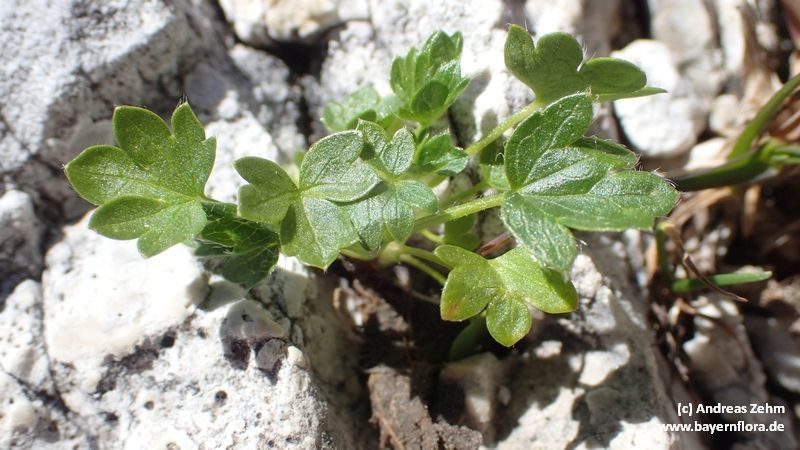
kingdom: Plantae
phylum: Tracheophyta
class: Magnoliopsida
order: Rosales
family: Rosaceae
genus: Potentilla
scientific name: Potentilla brauneana
